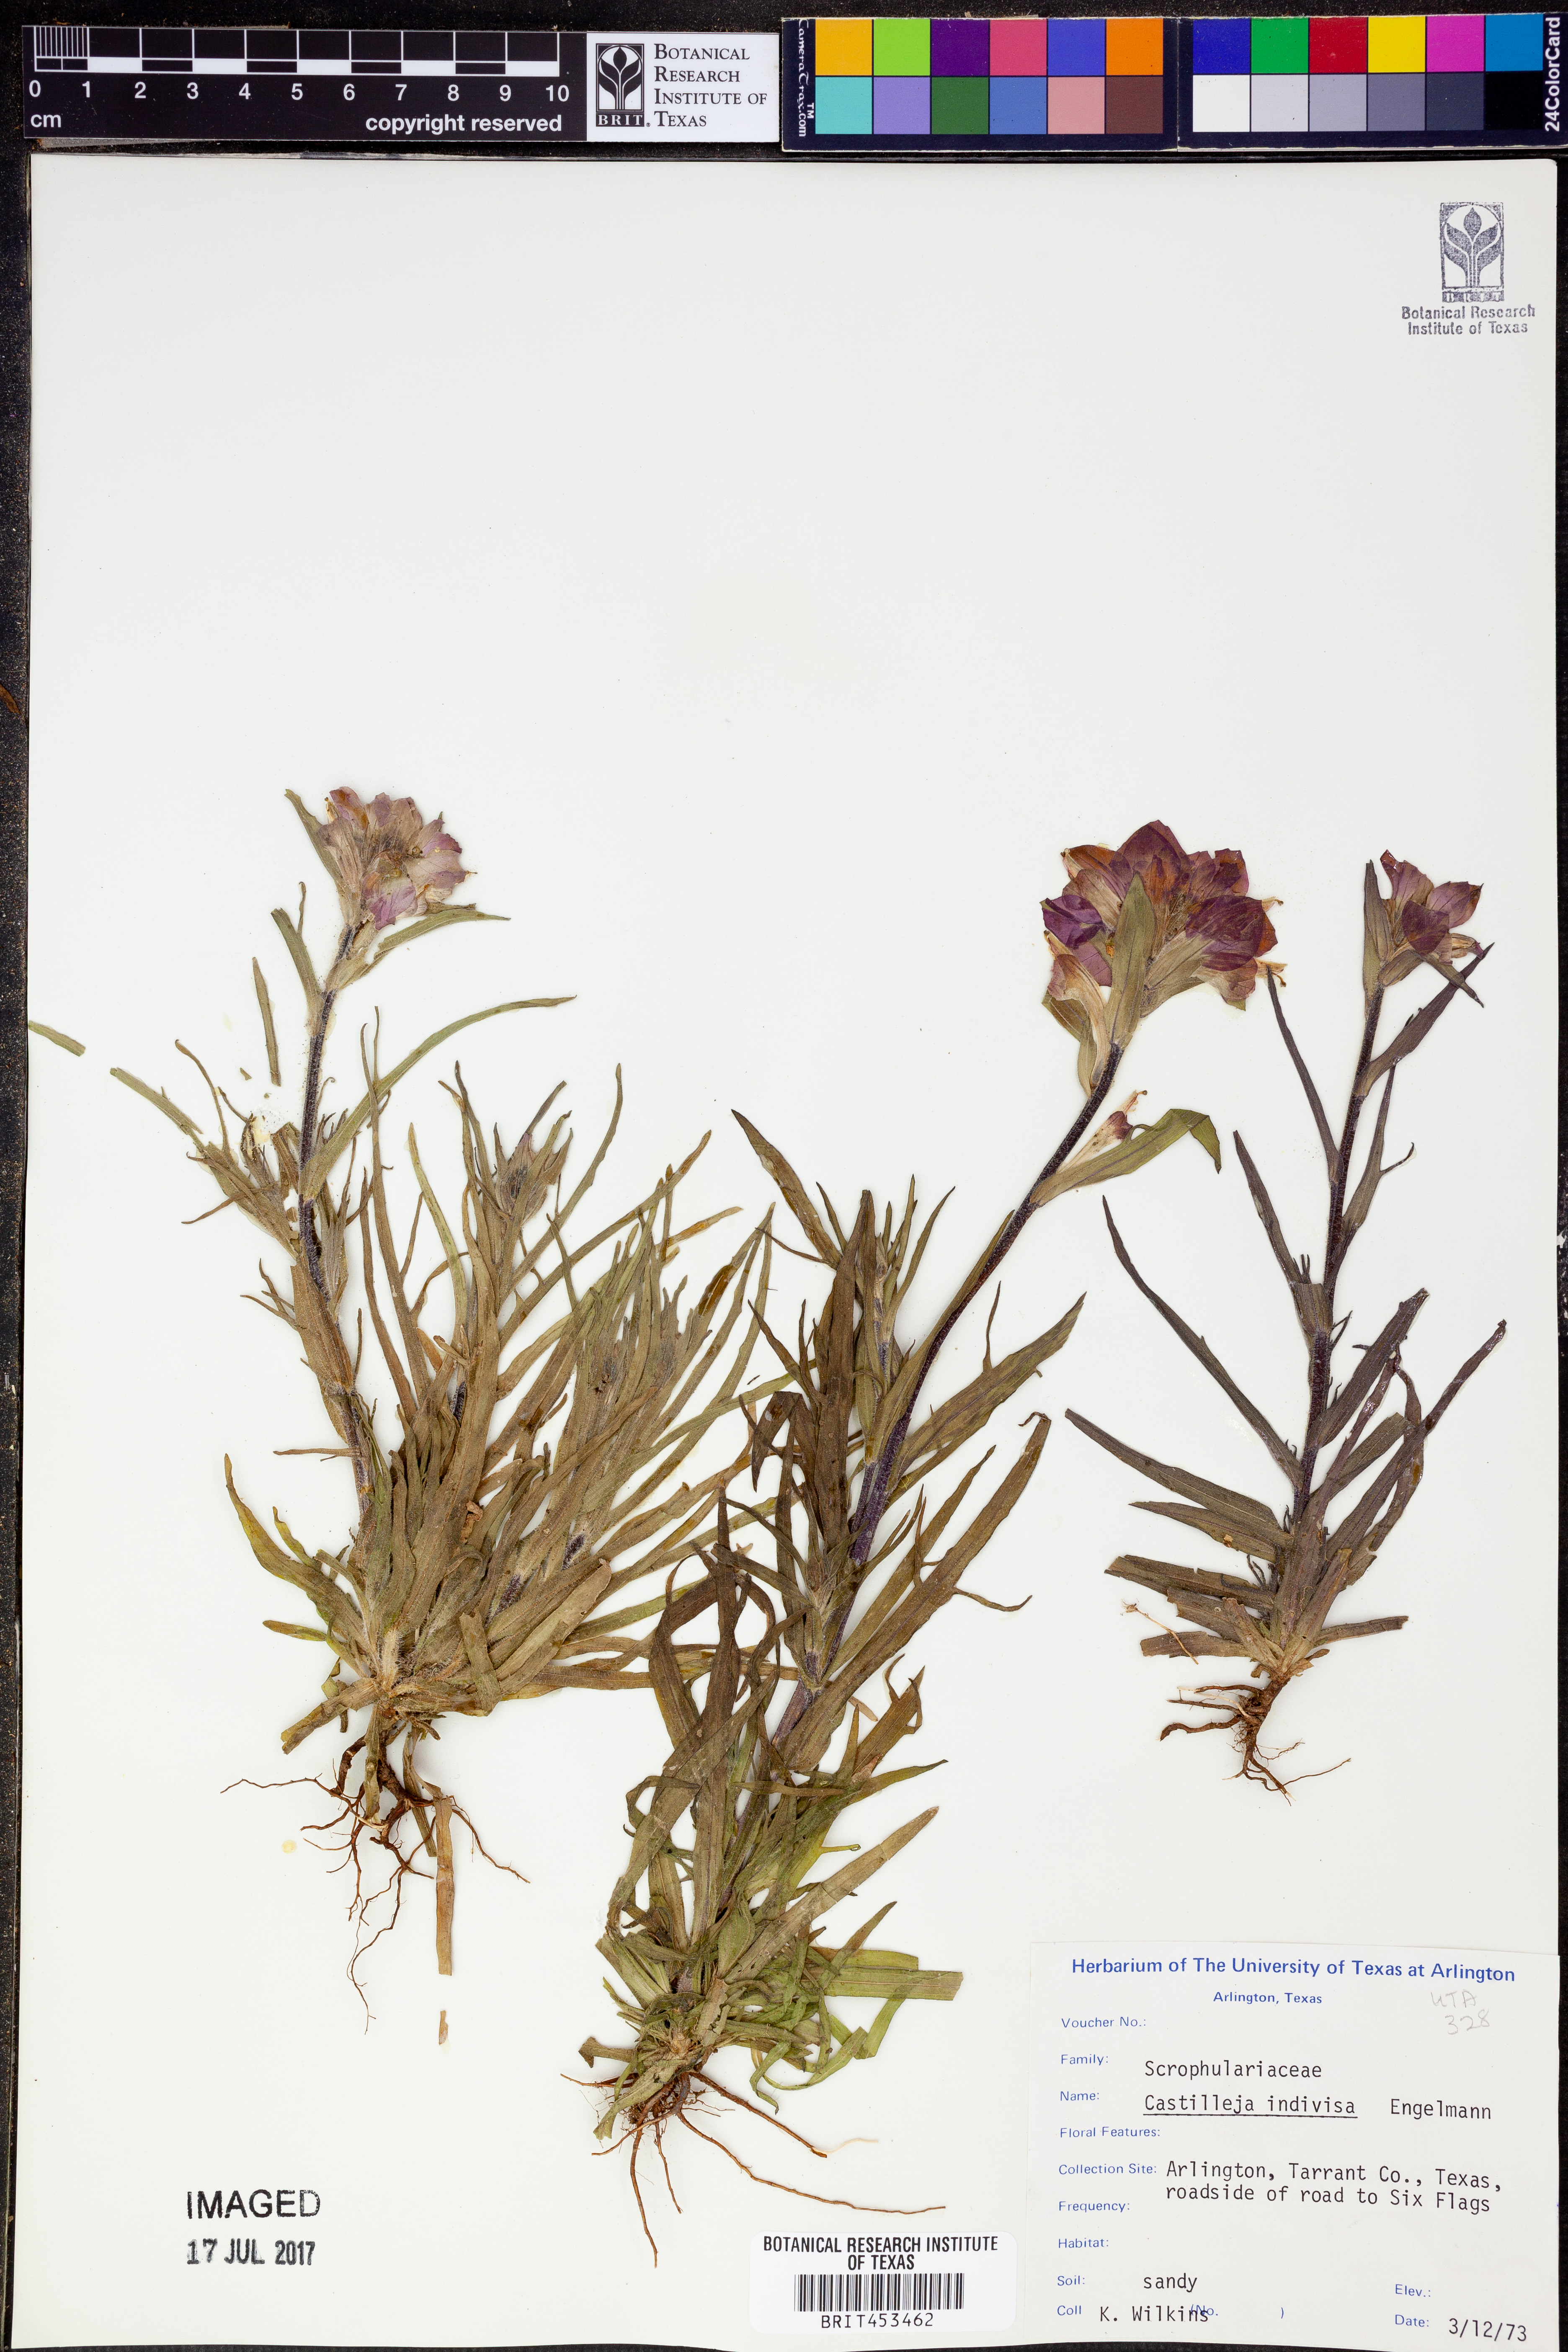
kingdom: Plantae
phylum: Tracheophyta
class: Magnoliopsida
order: Lamiales
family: Orobanchaceae
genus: Castilleja
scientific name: Castilleja indivisa
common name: Texas paintbrush
